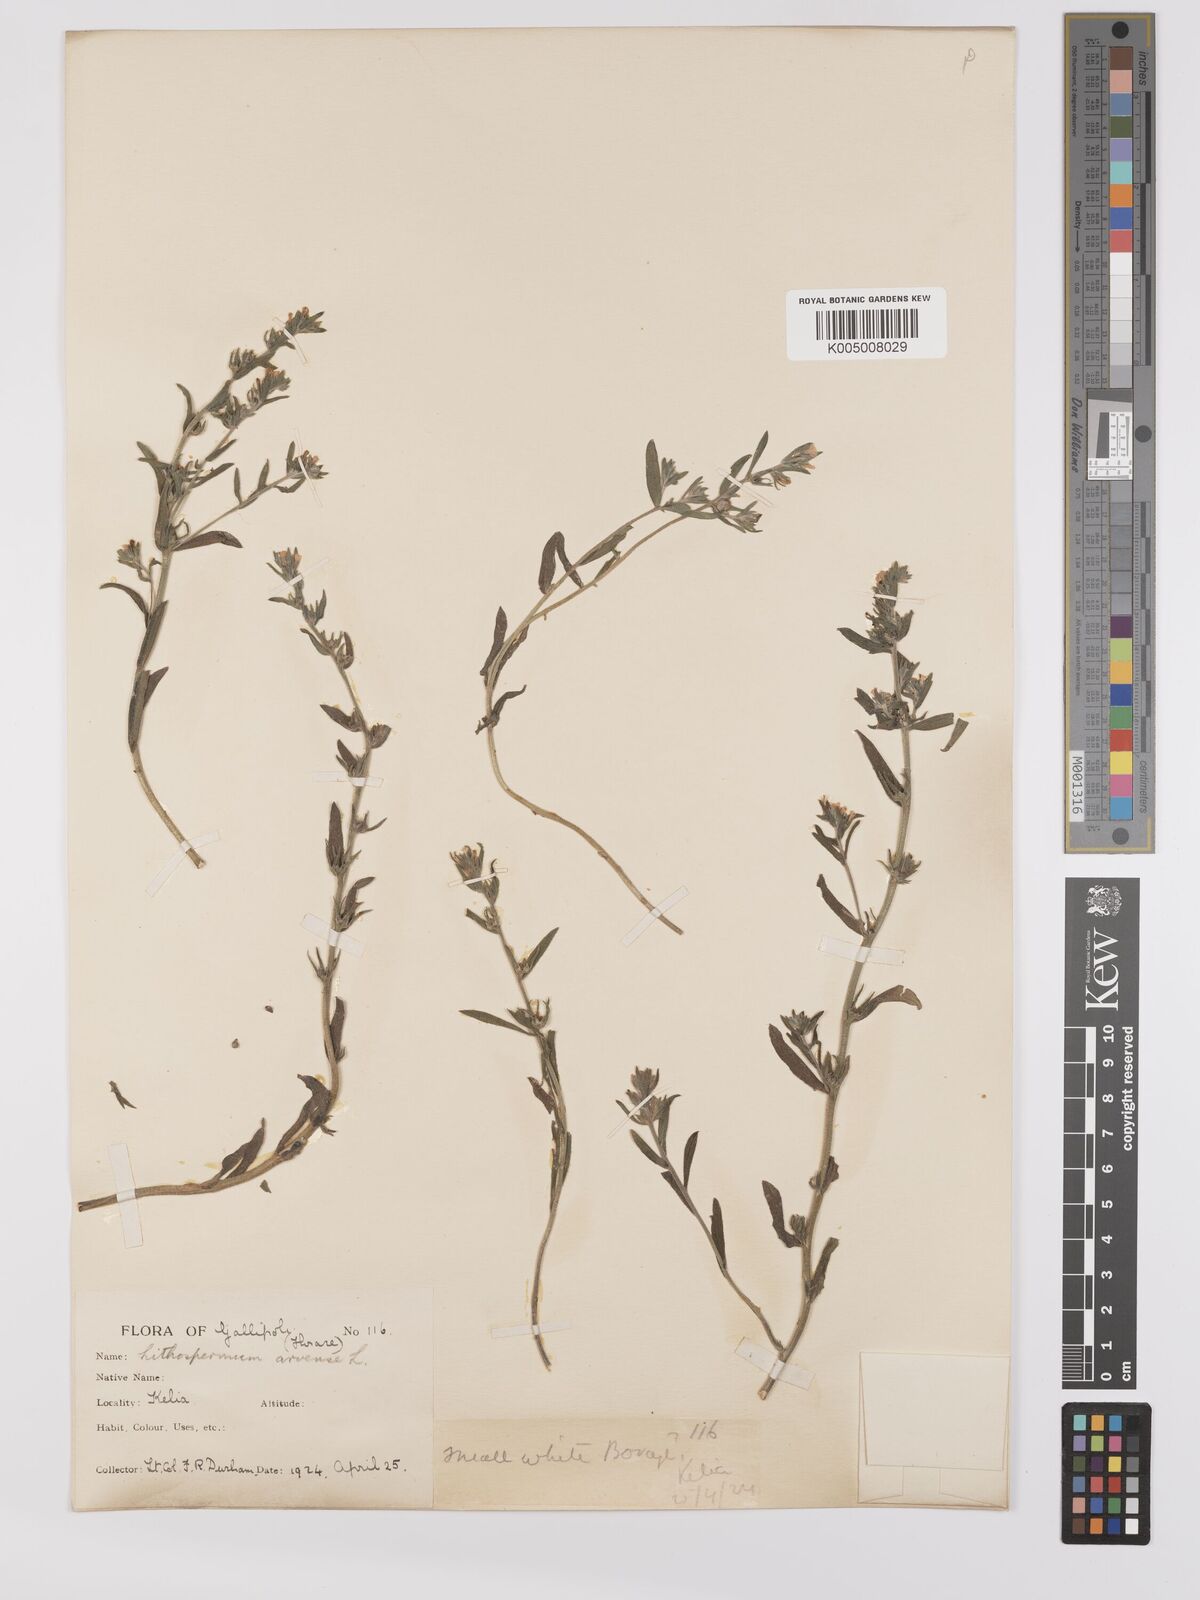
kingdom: Plantae
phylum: Tracheophyta
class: Magnoliopsida
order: Boraginales
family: Boraginaceae
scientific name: Boraginaceae
